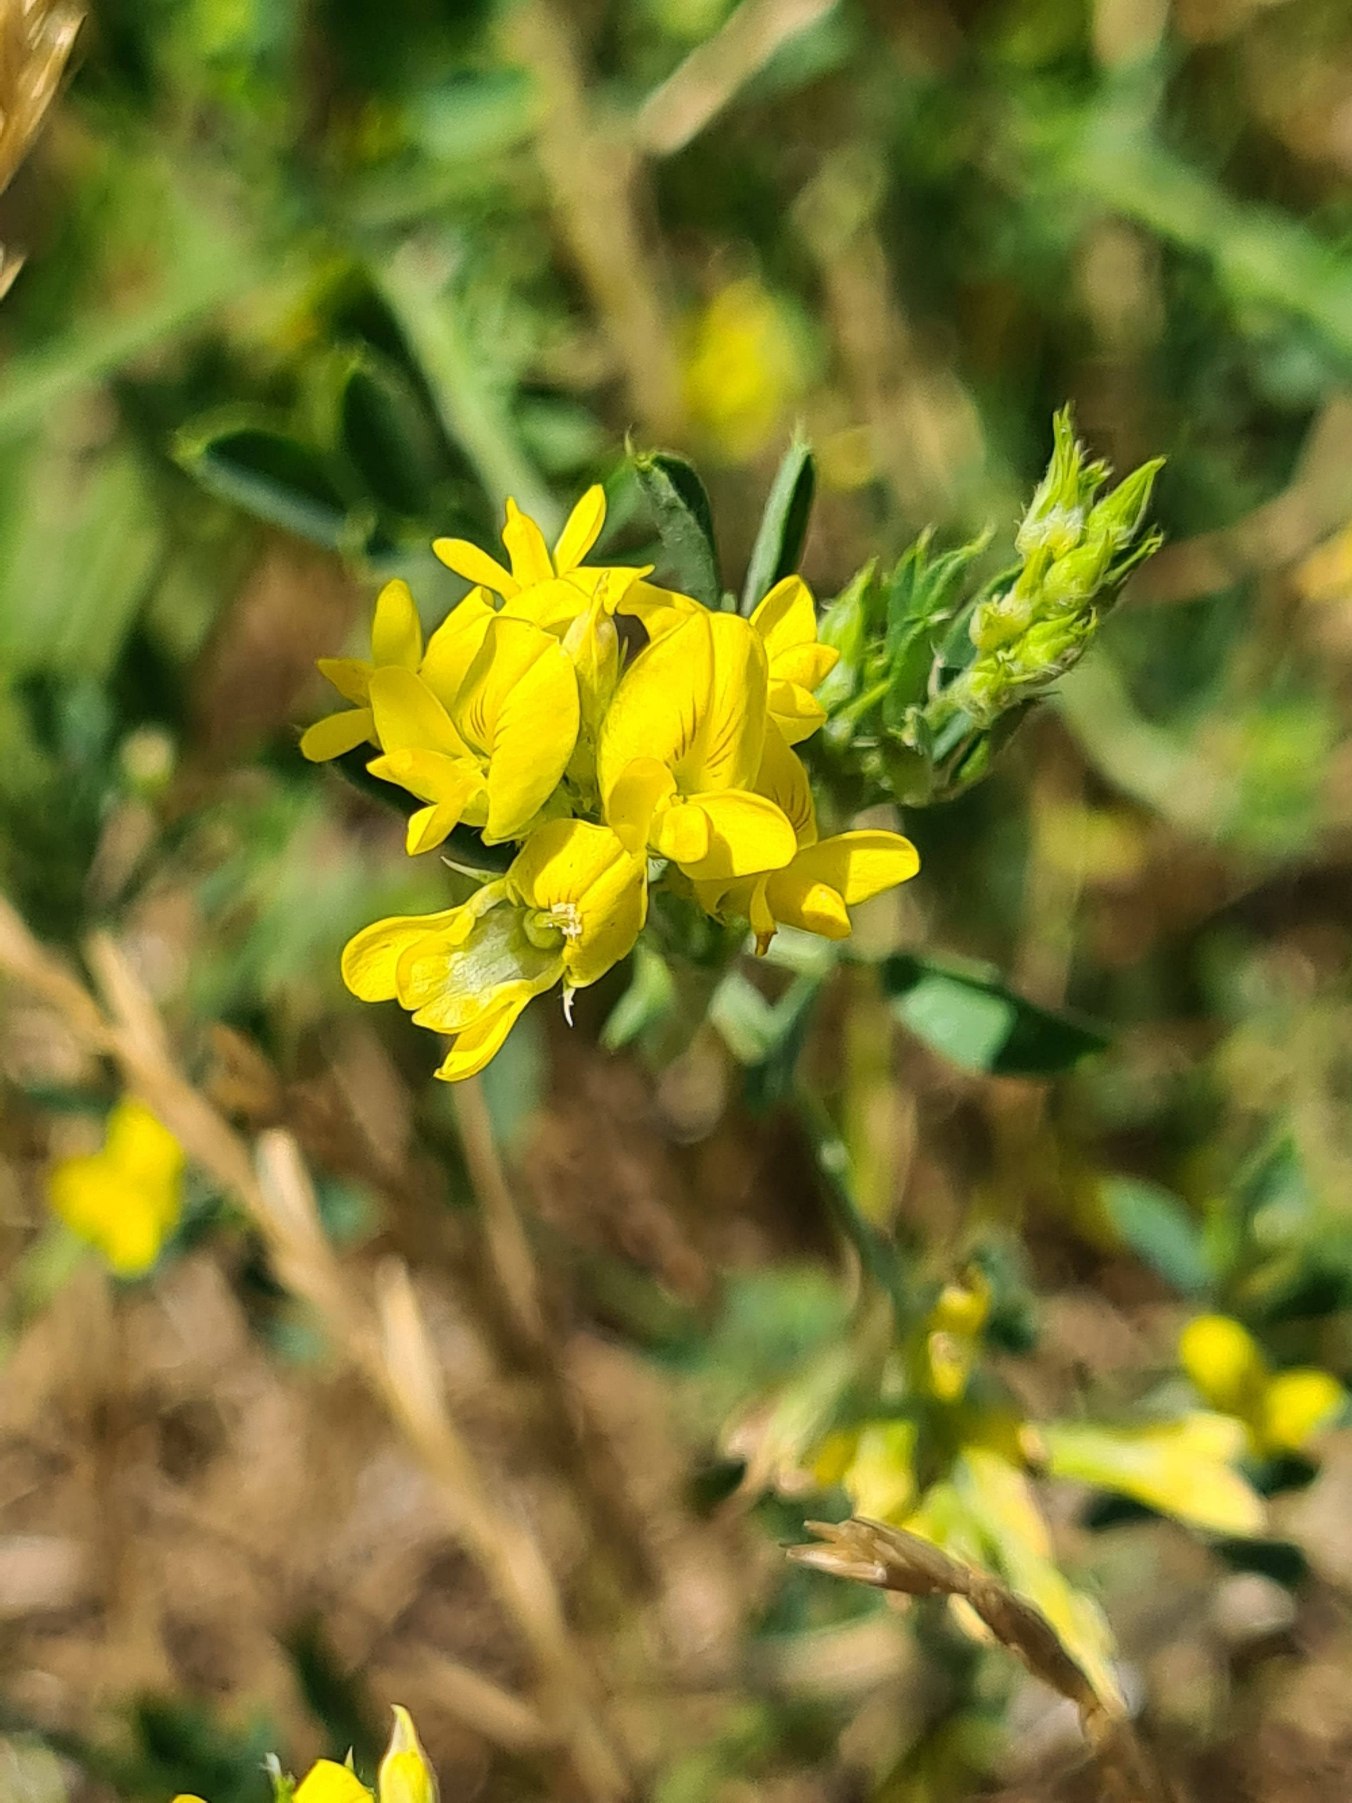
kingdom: Plantae
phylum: Tracheophyta
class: Magnoliopsida
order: Fabales
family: Fabaceae
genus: Medicago
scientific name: Medicago falcata
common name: Segl-sneglebælg
